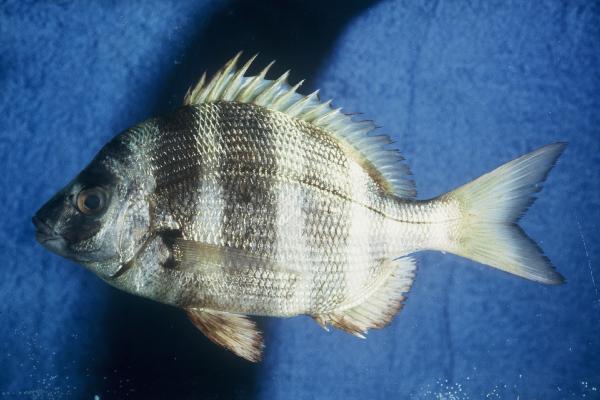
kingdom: Animalia
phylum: Chordata
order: Perciformes
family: Sparidae
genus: Diplodus
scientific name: Diplodus cervinus
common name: Oman porgy
